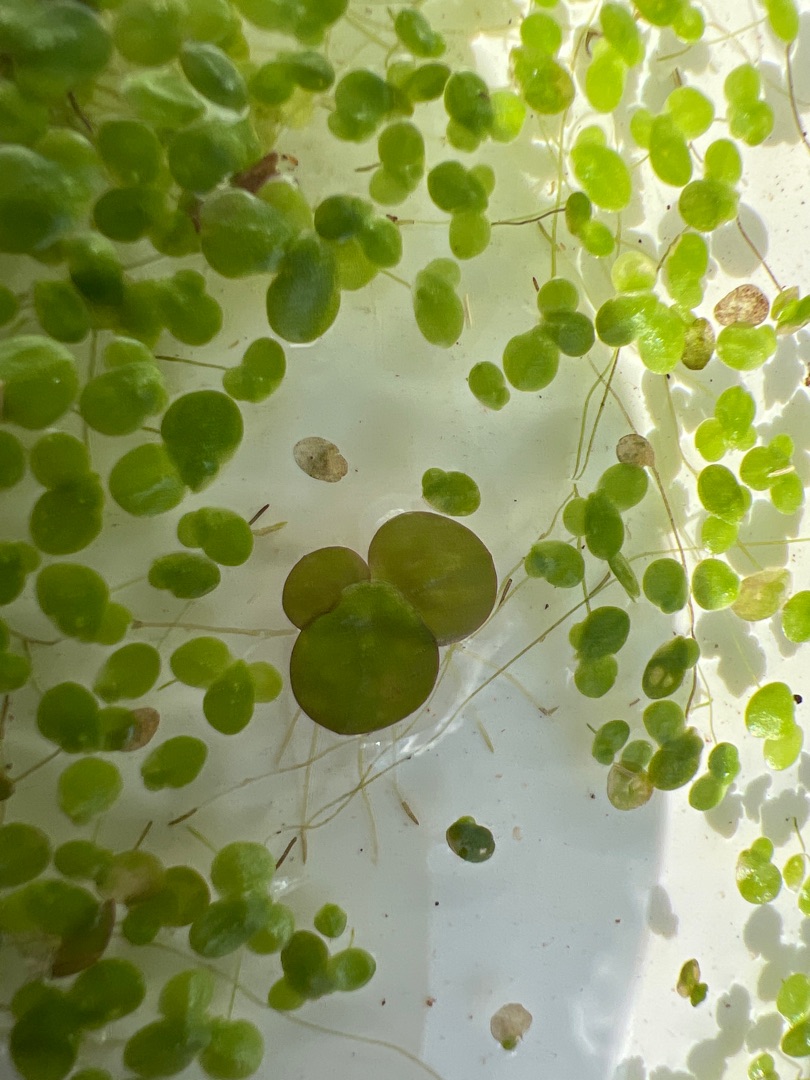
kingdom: Plantae
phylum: Tracheophyta
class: Liliopsida
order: Alismatales
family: Araceae
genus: Spirodela
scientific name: Spirodela polyrhiza
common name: Stor andemad
